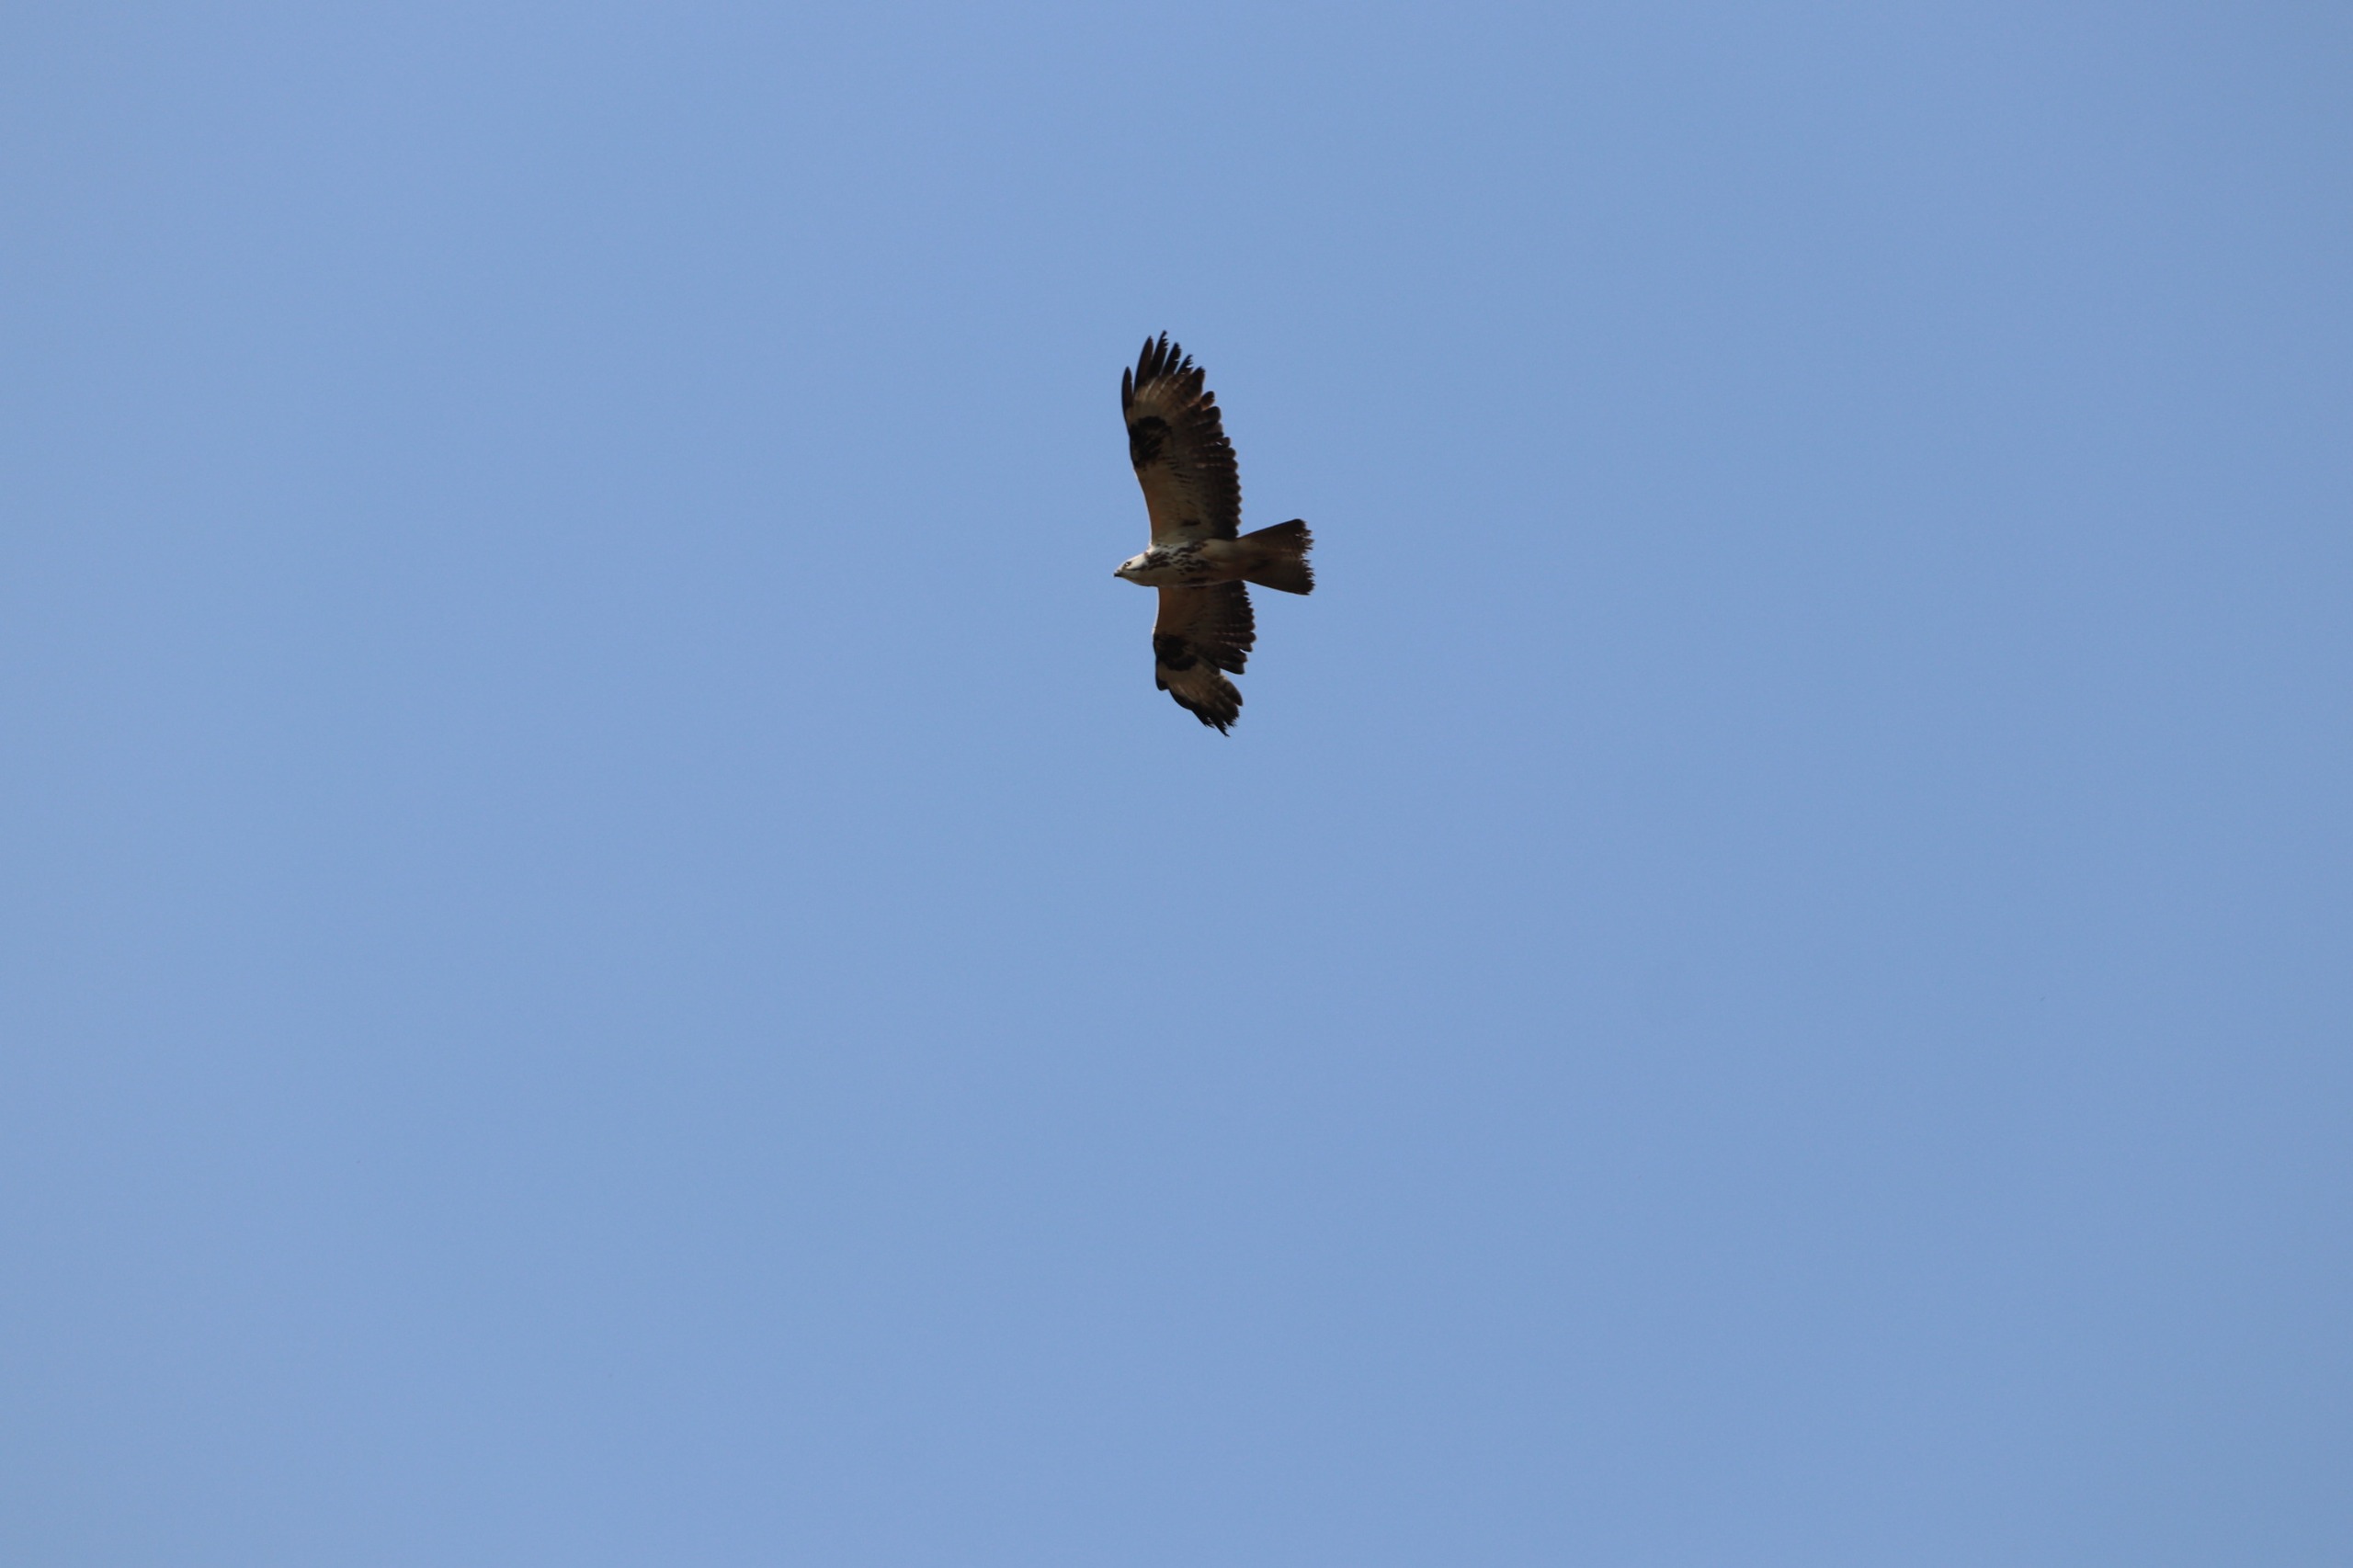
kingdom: Animalia
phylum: Chordata
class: Aves
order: Accipitriformes
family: Accipitridae
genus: Buteo
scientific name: Buteo buteo
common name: Musvåge
